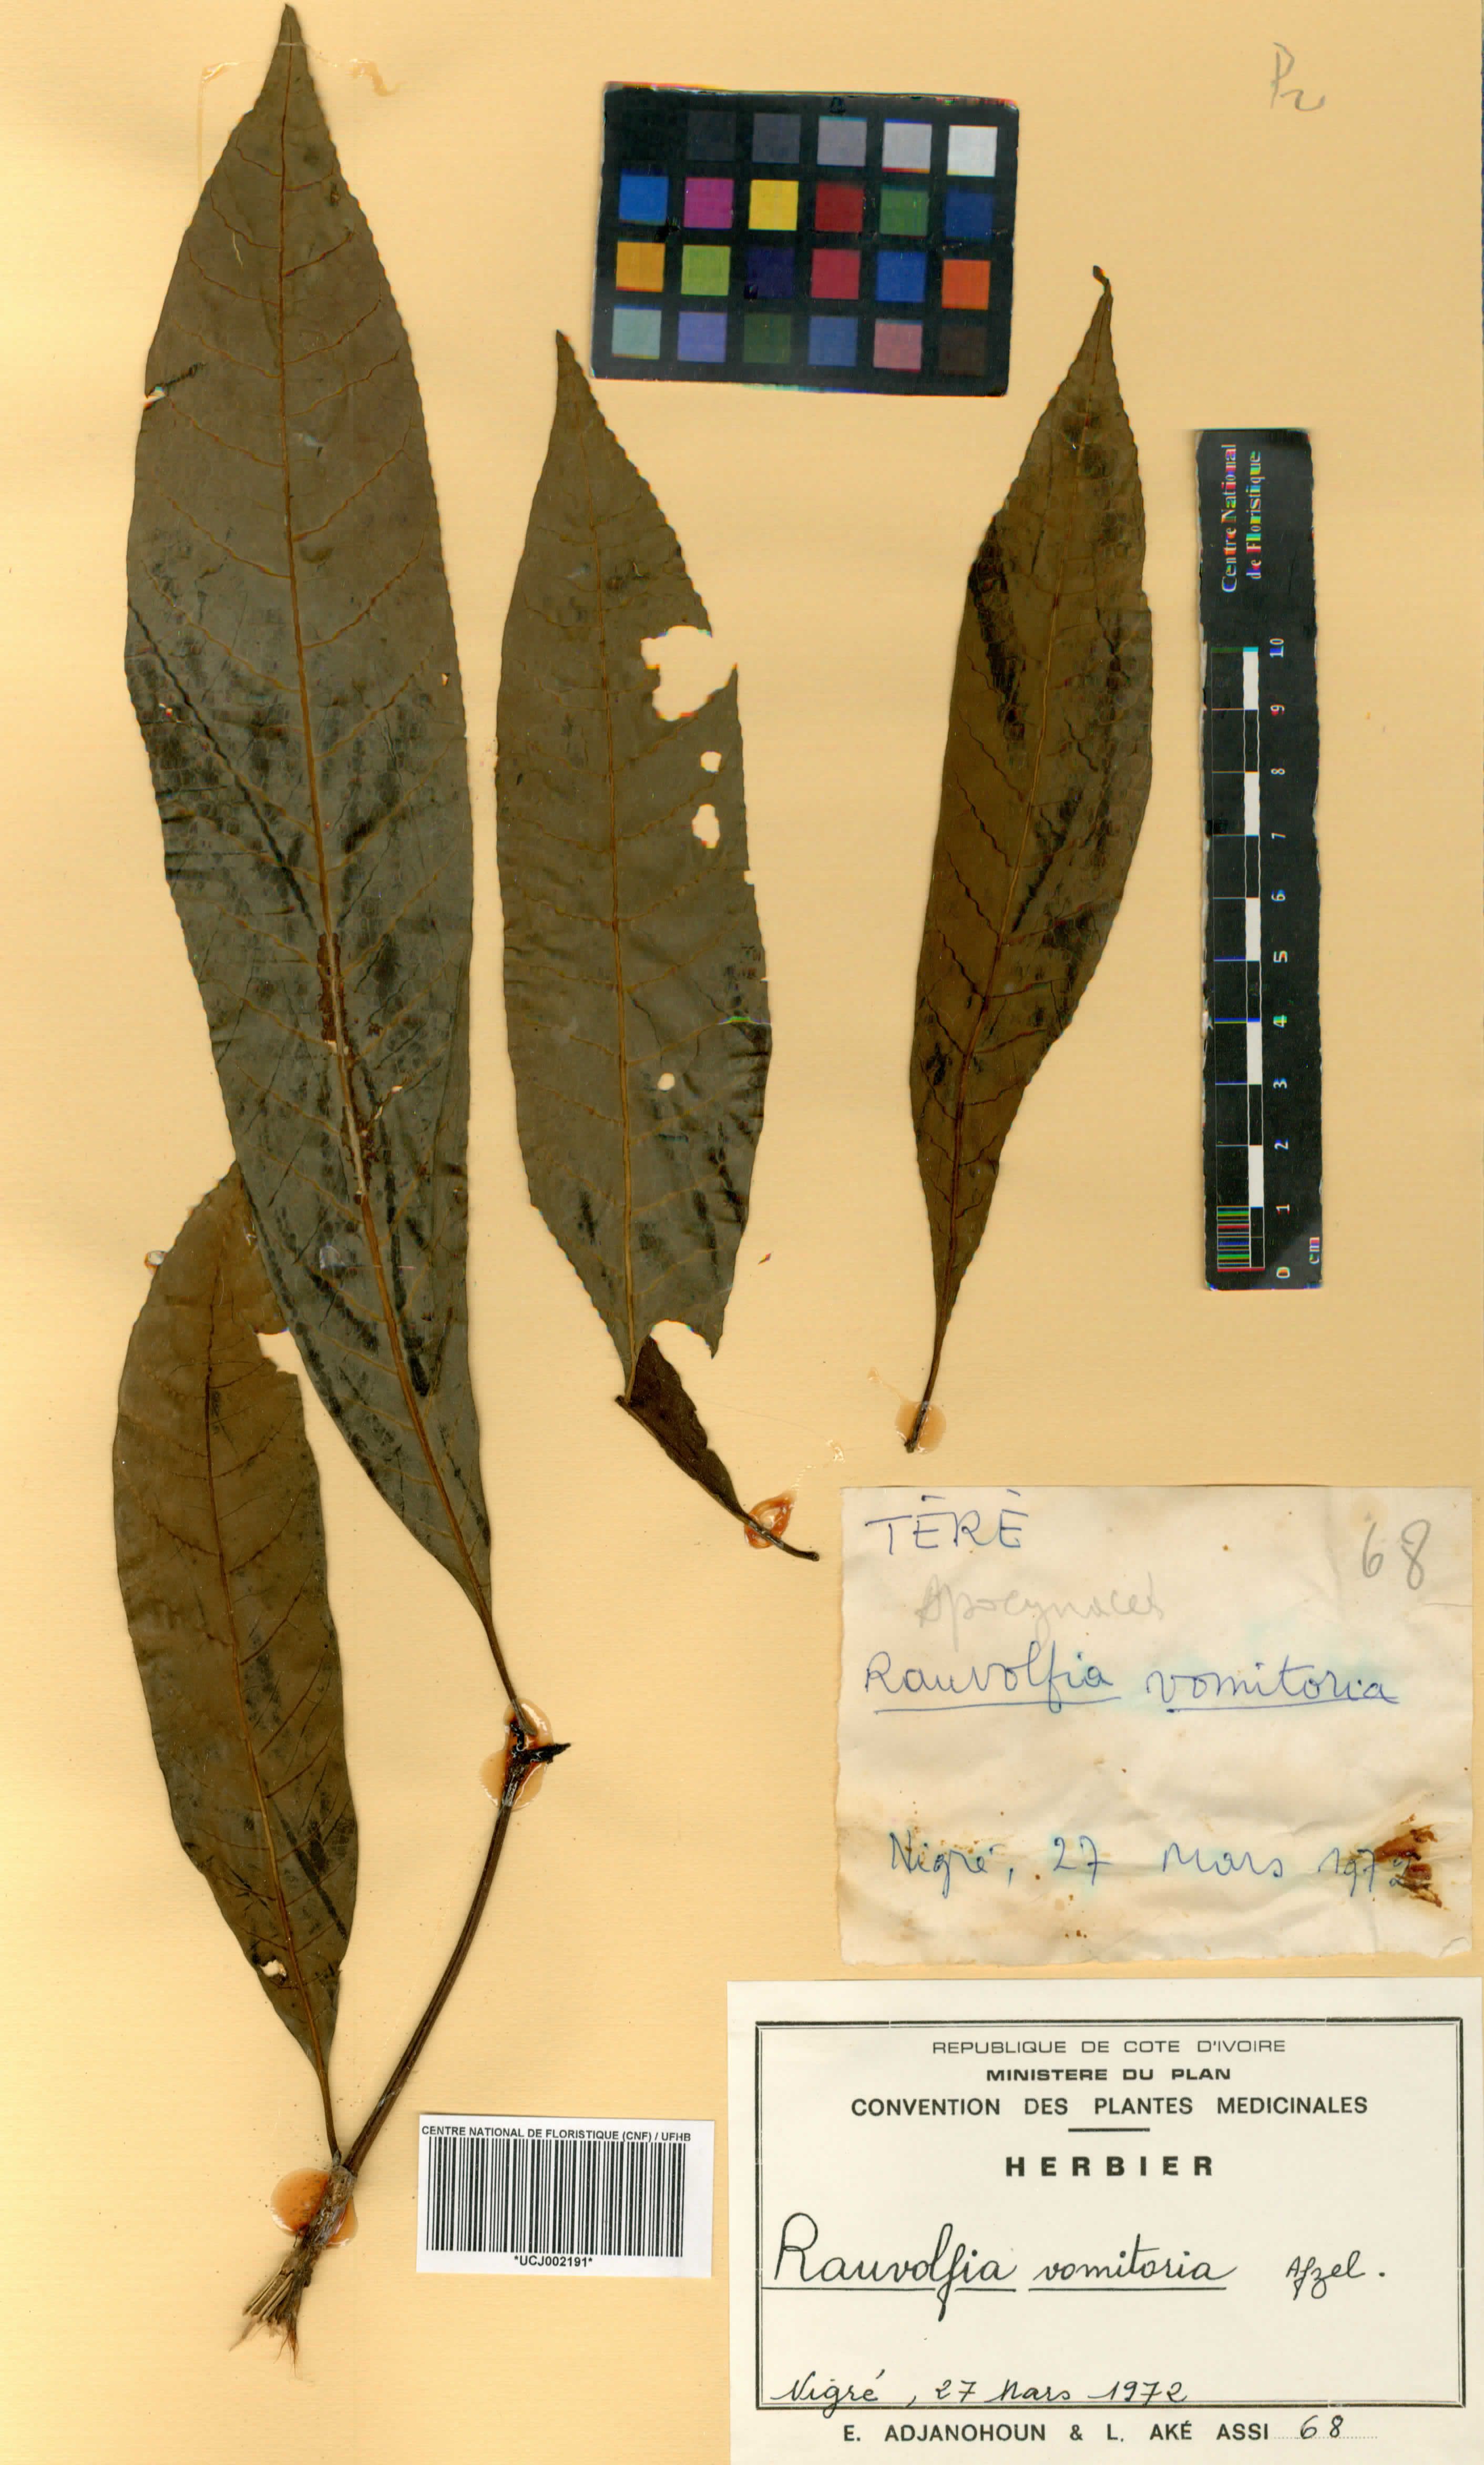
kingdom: Plantae
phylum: Tracheophyta
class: Magnoliopsida
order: Gentianales
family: Apocynaceae
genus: Rauvolfia
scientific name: Rauvolfia vomitoria
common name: Poison devil's-pepper
